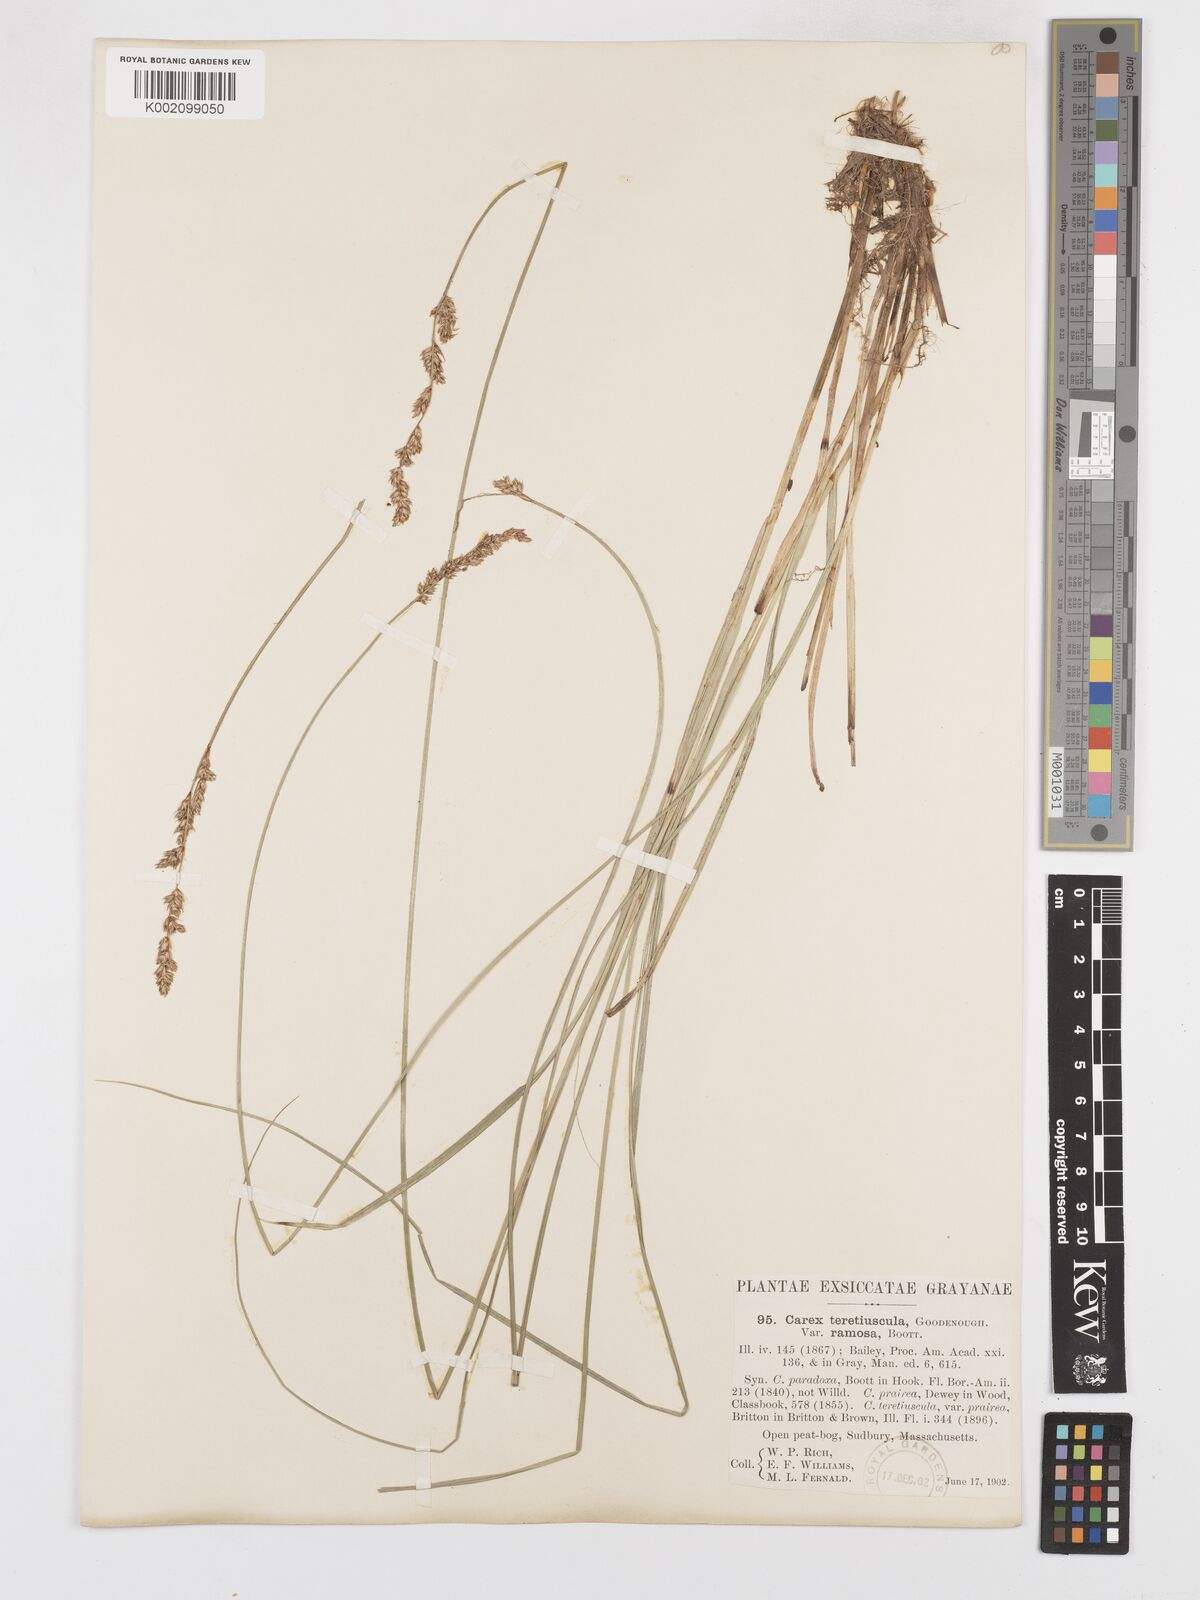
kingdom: Plantae
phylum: Tracheophyta
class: Liliopsida
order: Poales
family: Cyperaceae
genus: Carex
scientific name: Carex diandra
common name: Lesser tussock-sedge
